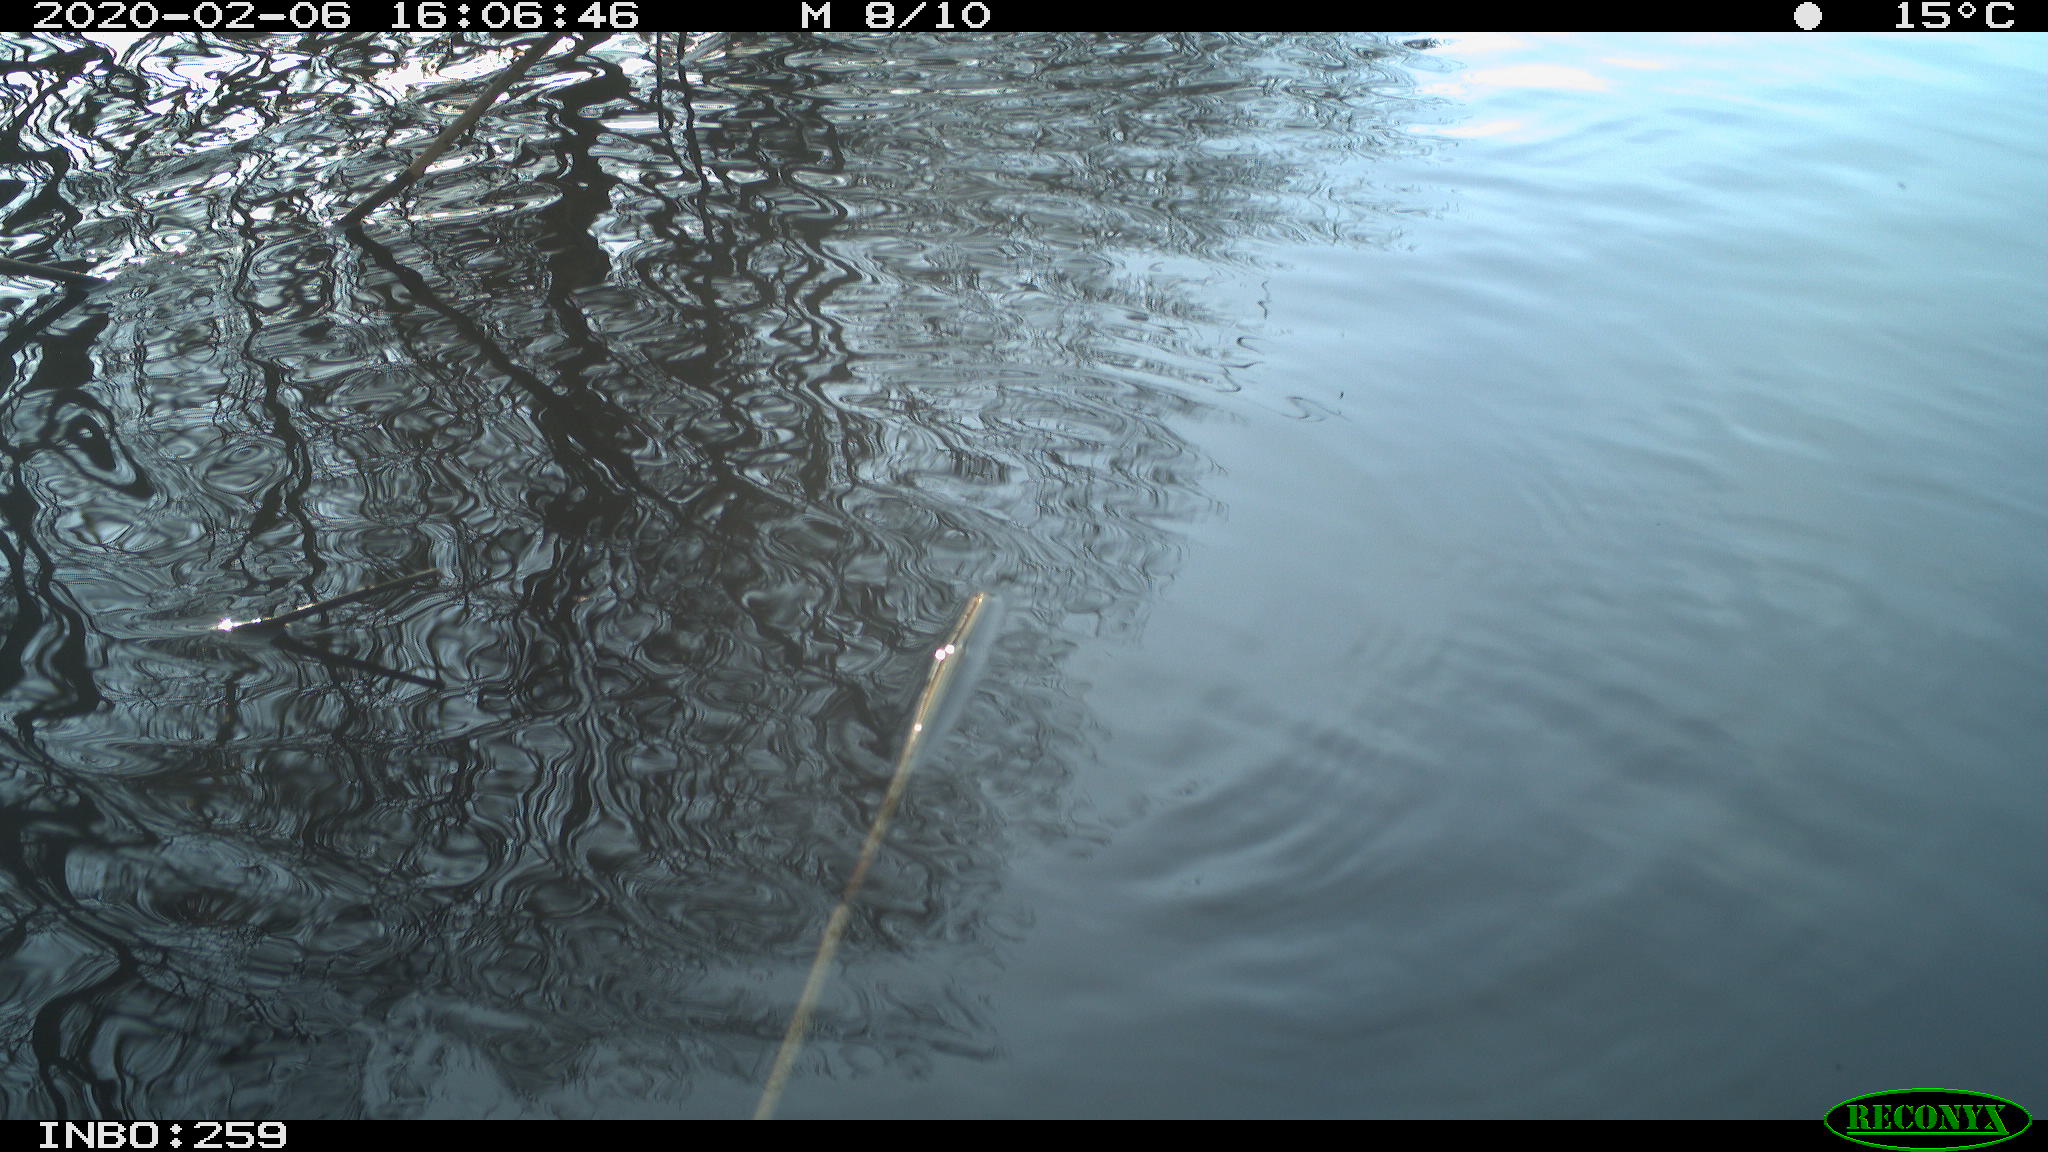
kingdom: Animalia
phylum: Chordata
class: Aves
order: Gruiformes
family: Rallidae
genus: Gallinula
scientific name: Gallinula chloropus
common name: Common moorhen
